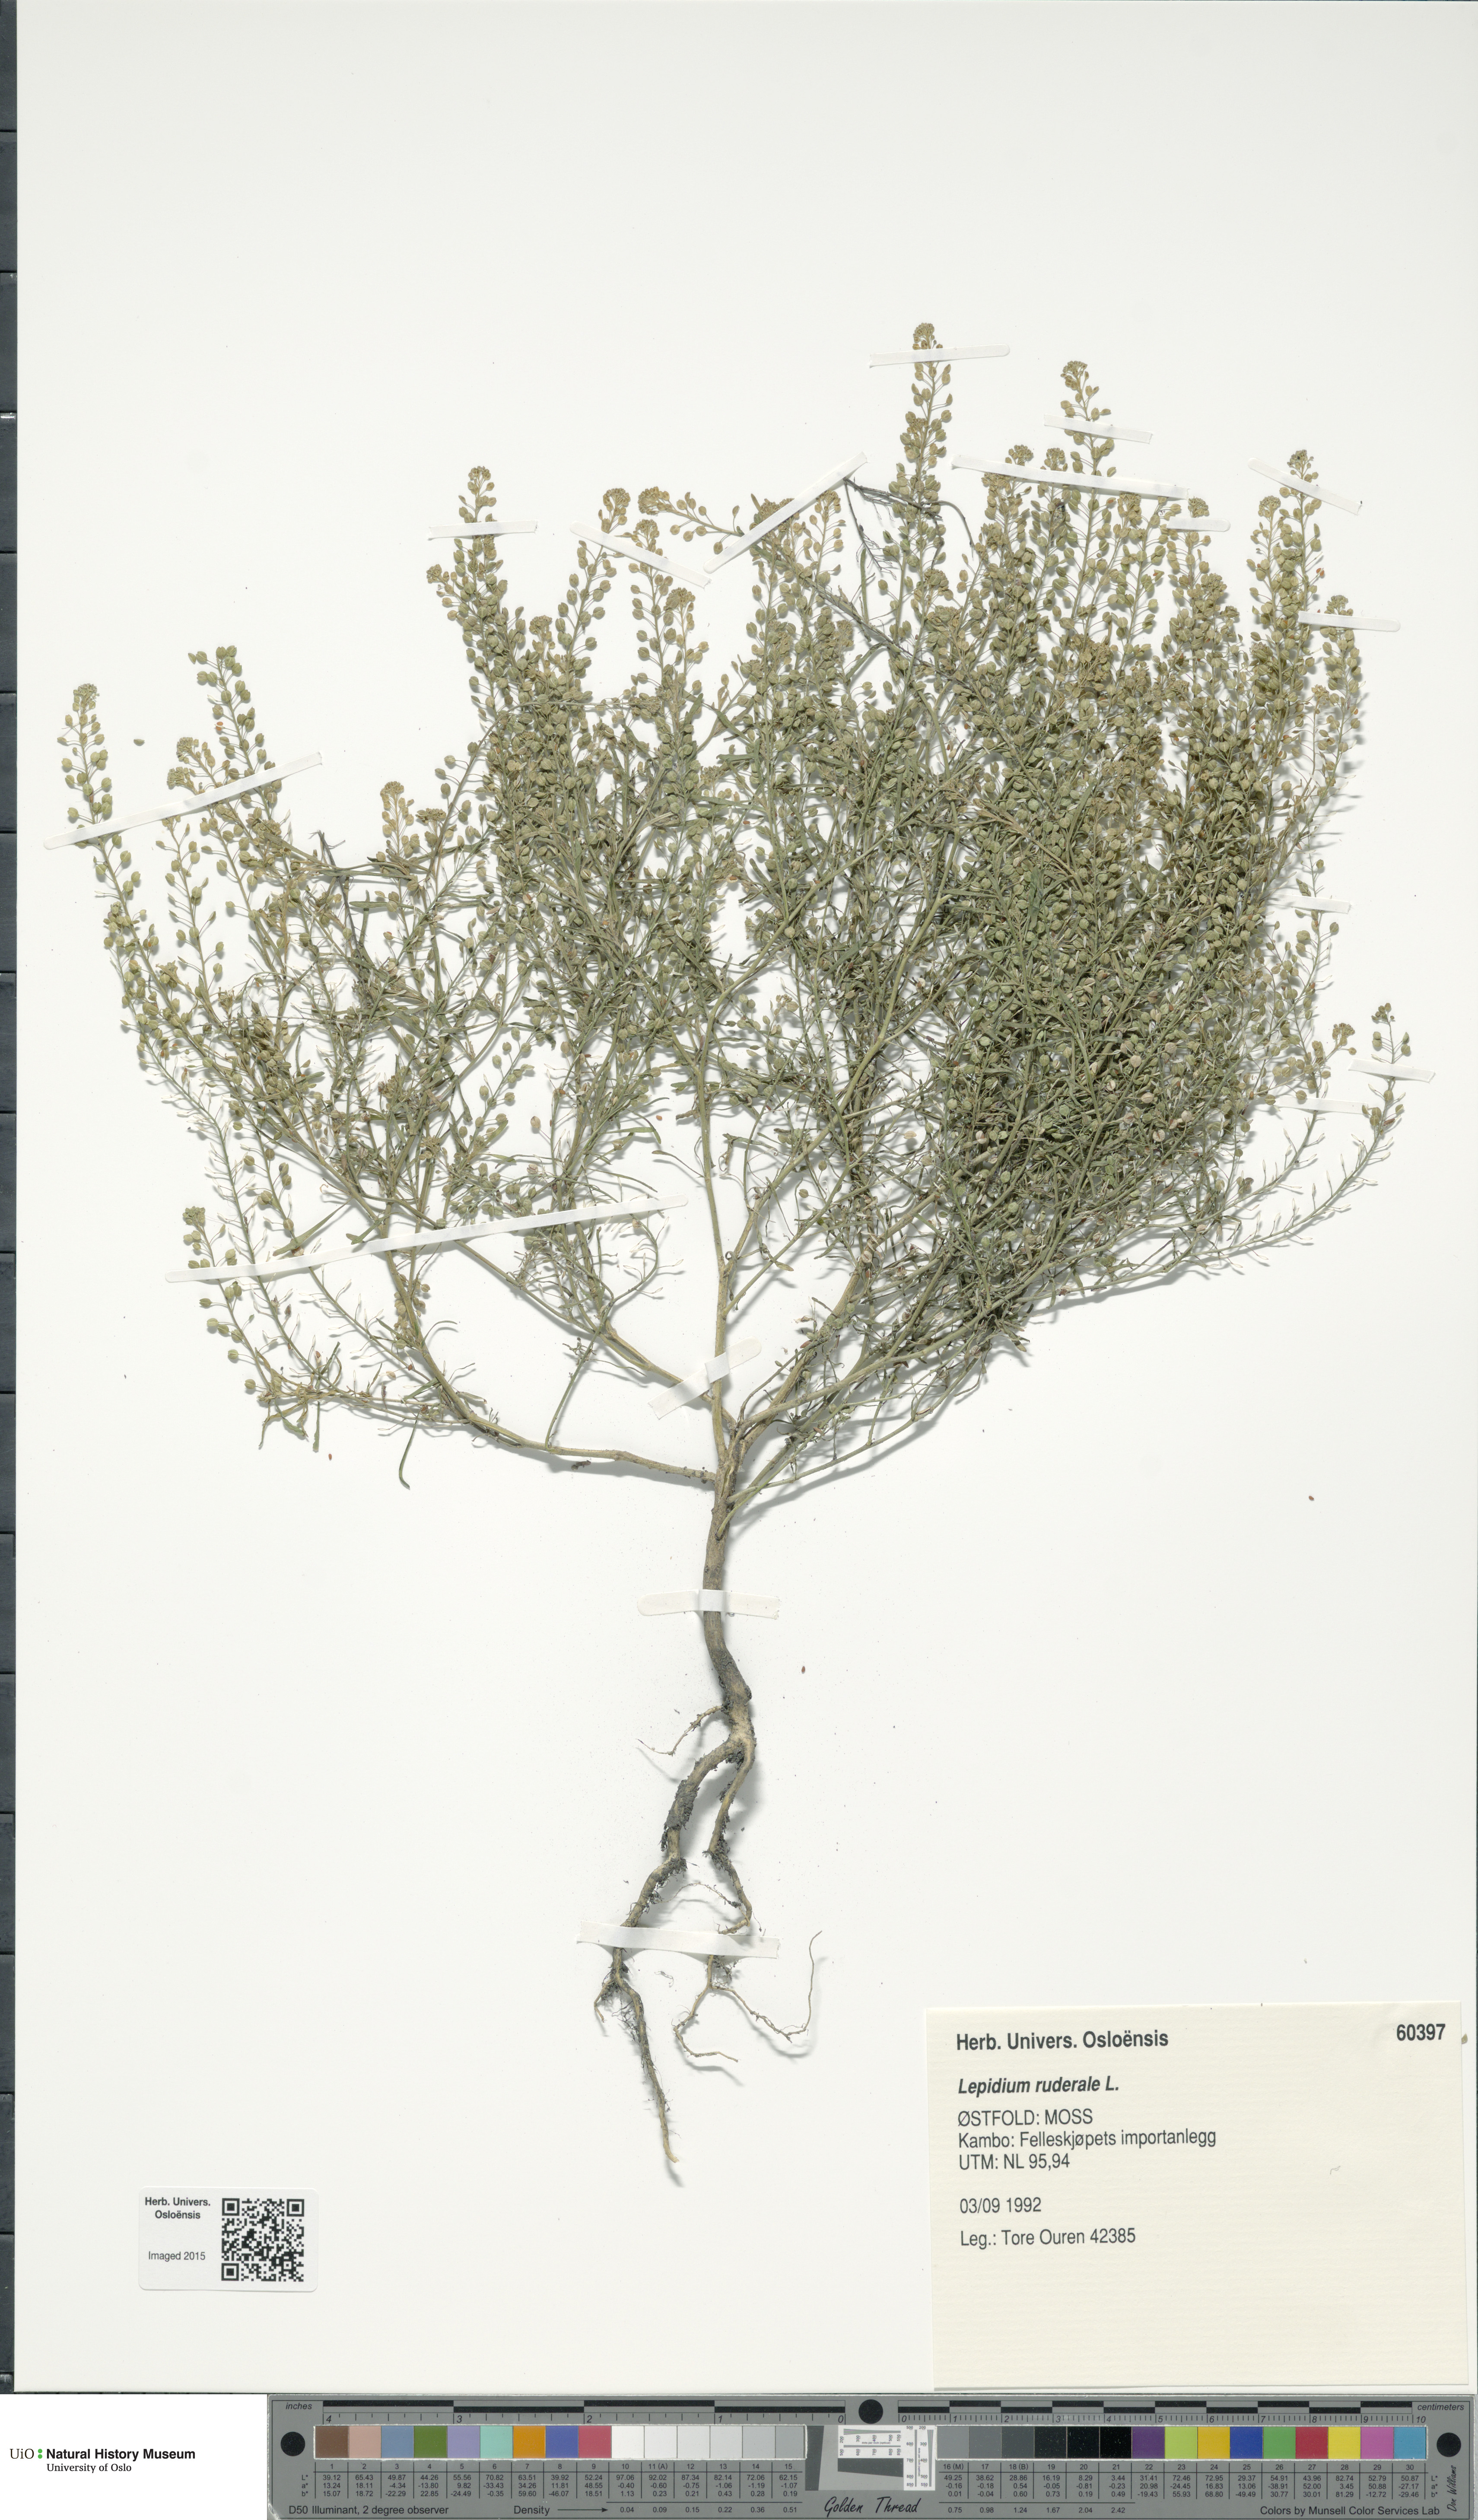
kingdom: Plantae
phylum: Tracheophyta
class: Magnoliopsida
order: Brassicales
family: Brassicaceae
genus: Lepidium
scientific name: Lepidium ruderale
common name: Narrow-leaved pepperwort
